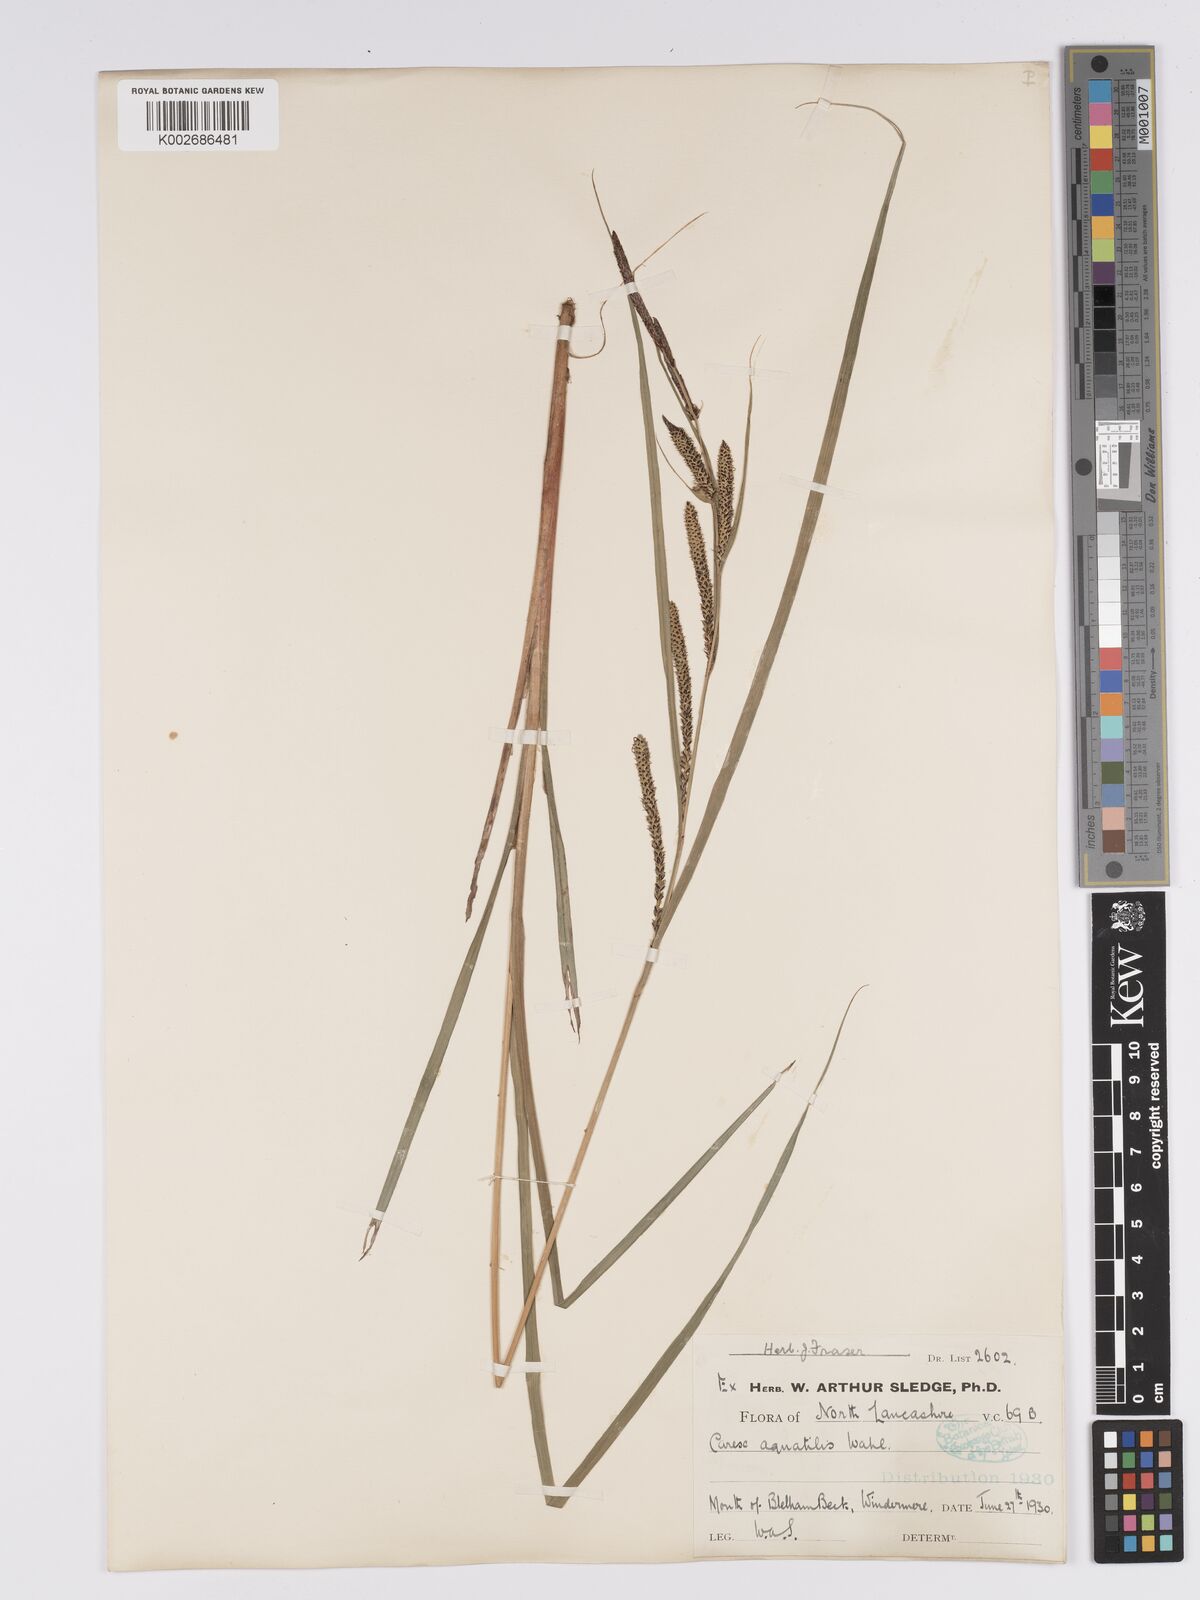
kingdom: Plantae
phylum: Tracheophyta
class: Liliopsida
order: Poales
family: Cyperaceae
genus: Carex
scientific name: Carex aquatilis
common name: Water sedge
